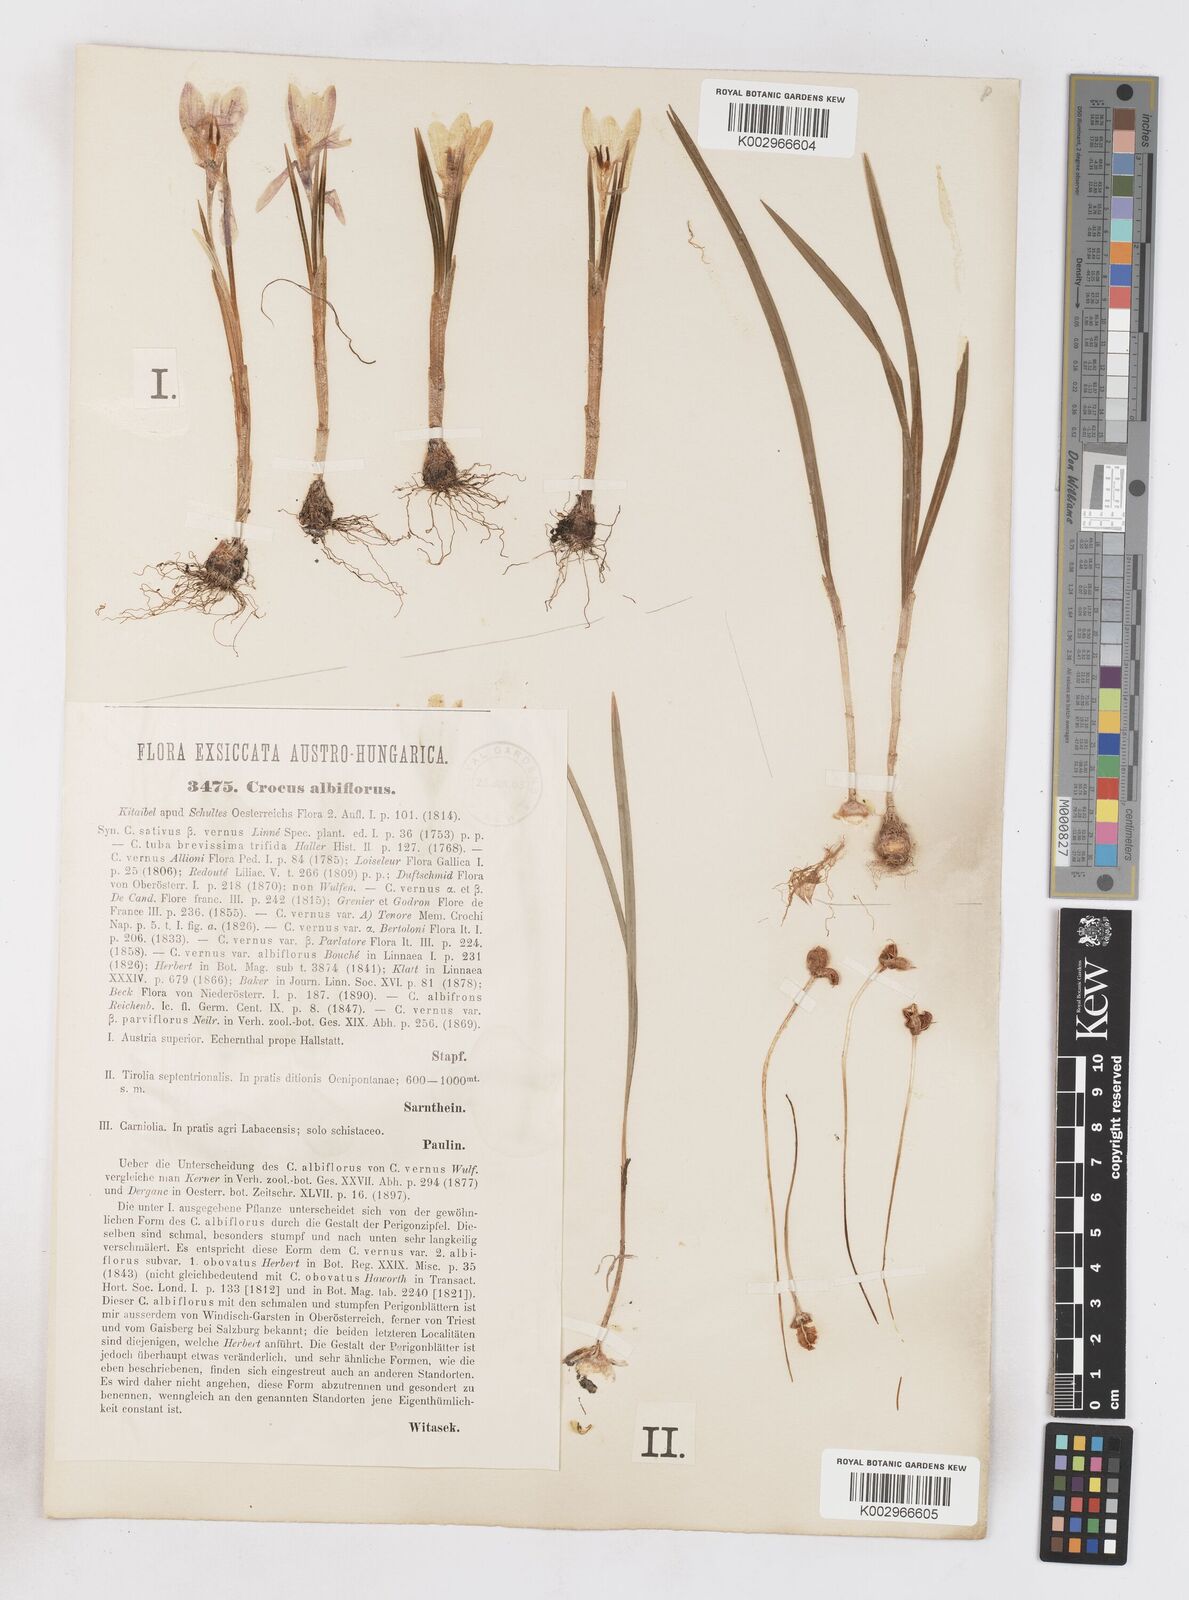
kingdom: Plantae
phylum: Tracheophyta
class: Liliopsida
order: Asparagales
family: Iridaceae
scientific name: Iridaceae
